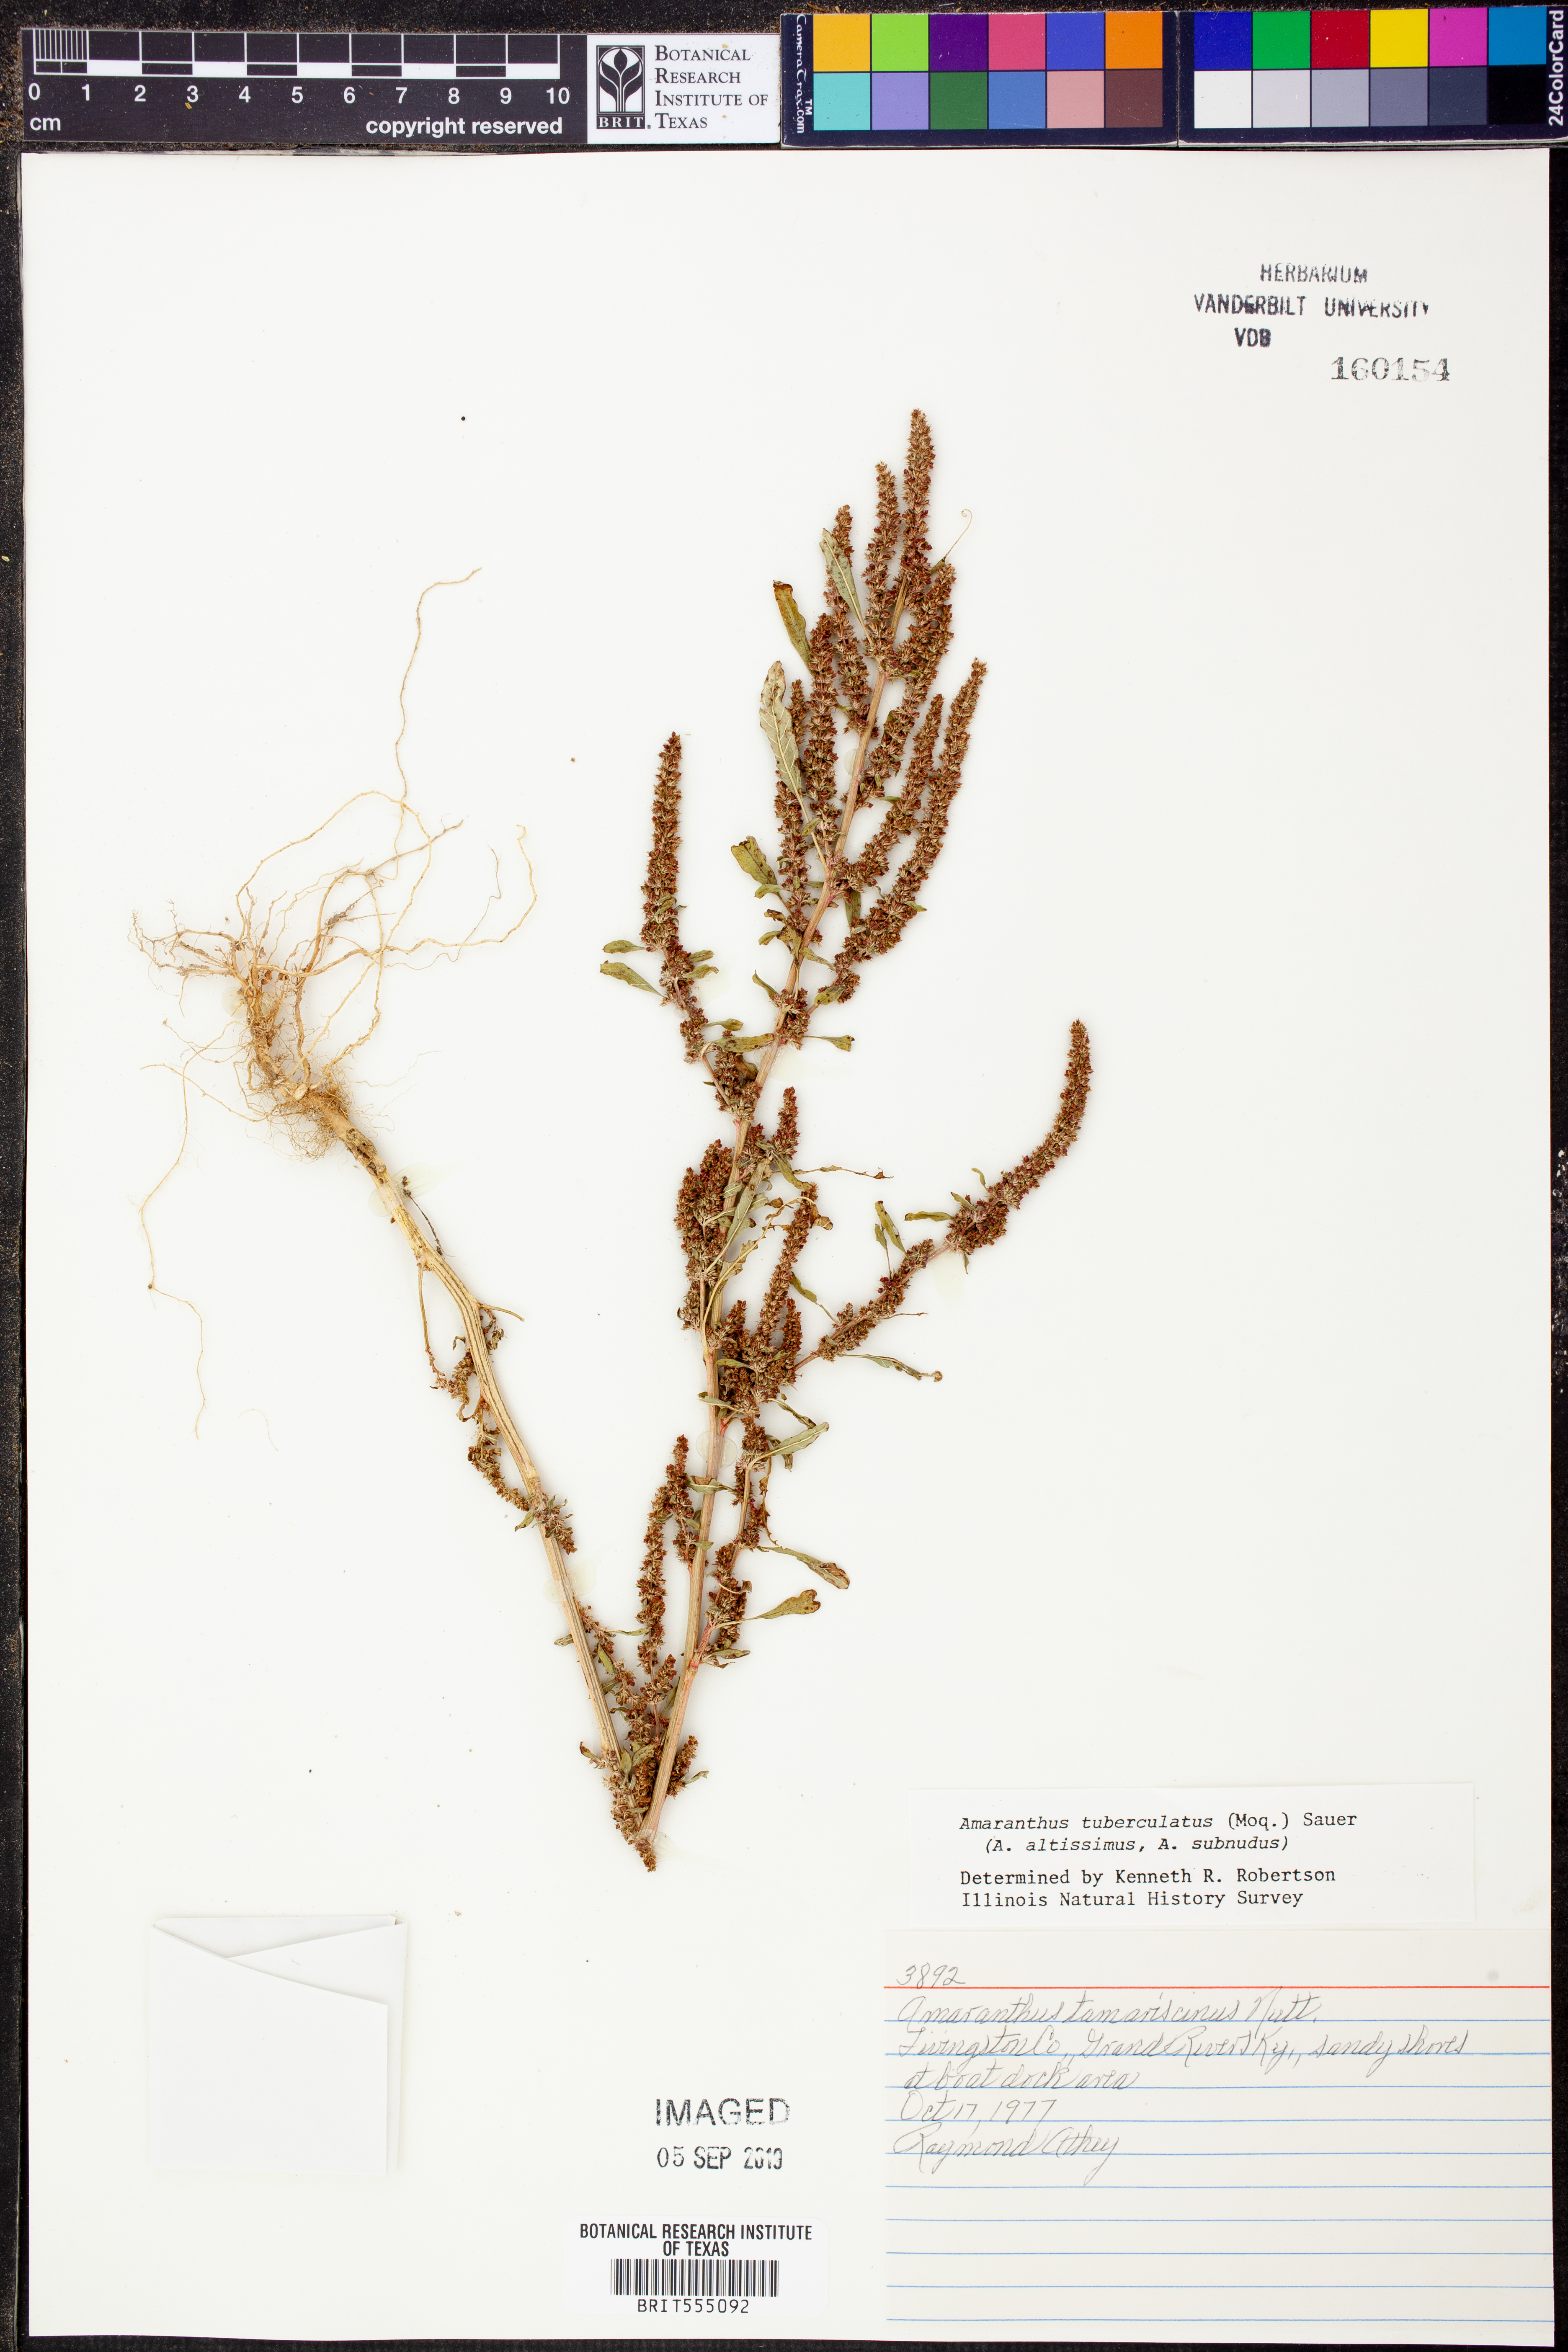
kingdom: Plantae
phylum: Tracheophyta
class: Magnoliopsida
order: Caryophyllales
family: Amaranthaceae
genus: Amaranthus
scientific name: Amaranthus tuberculatus
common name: Rough-fruit amaranth
